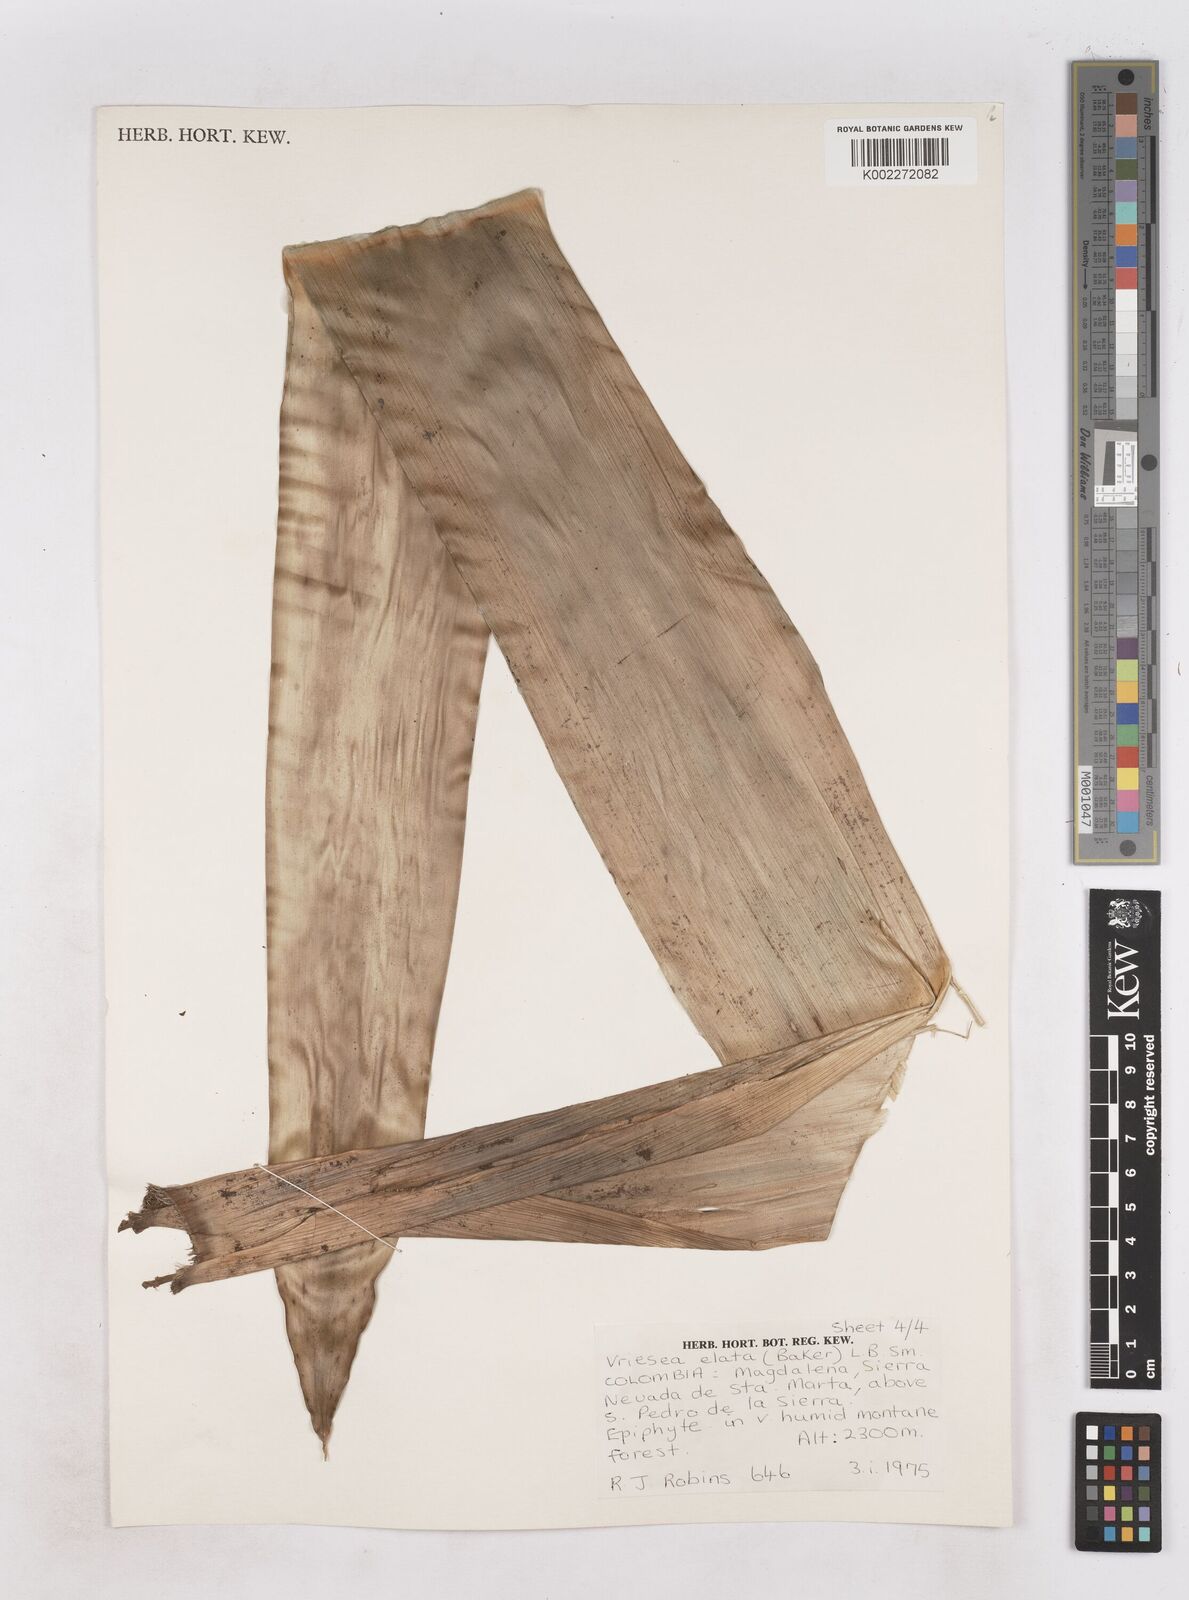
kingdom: Plantae
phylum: Tracheophyta
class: Liliopsida
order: Poales
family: Bromeliaceae
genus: Vriesea
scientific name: Vriesea elata
